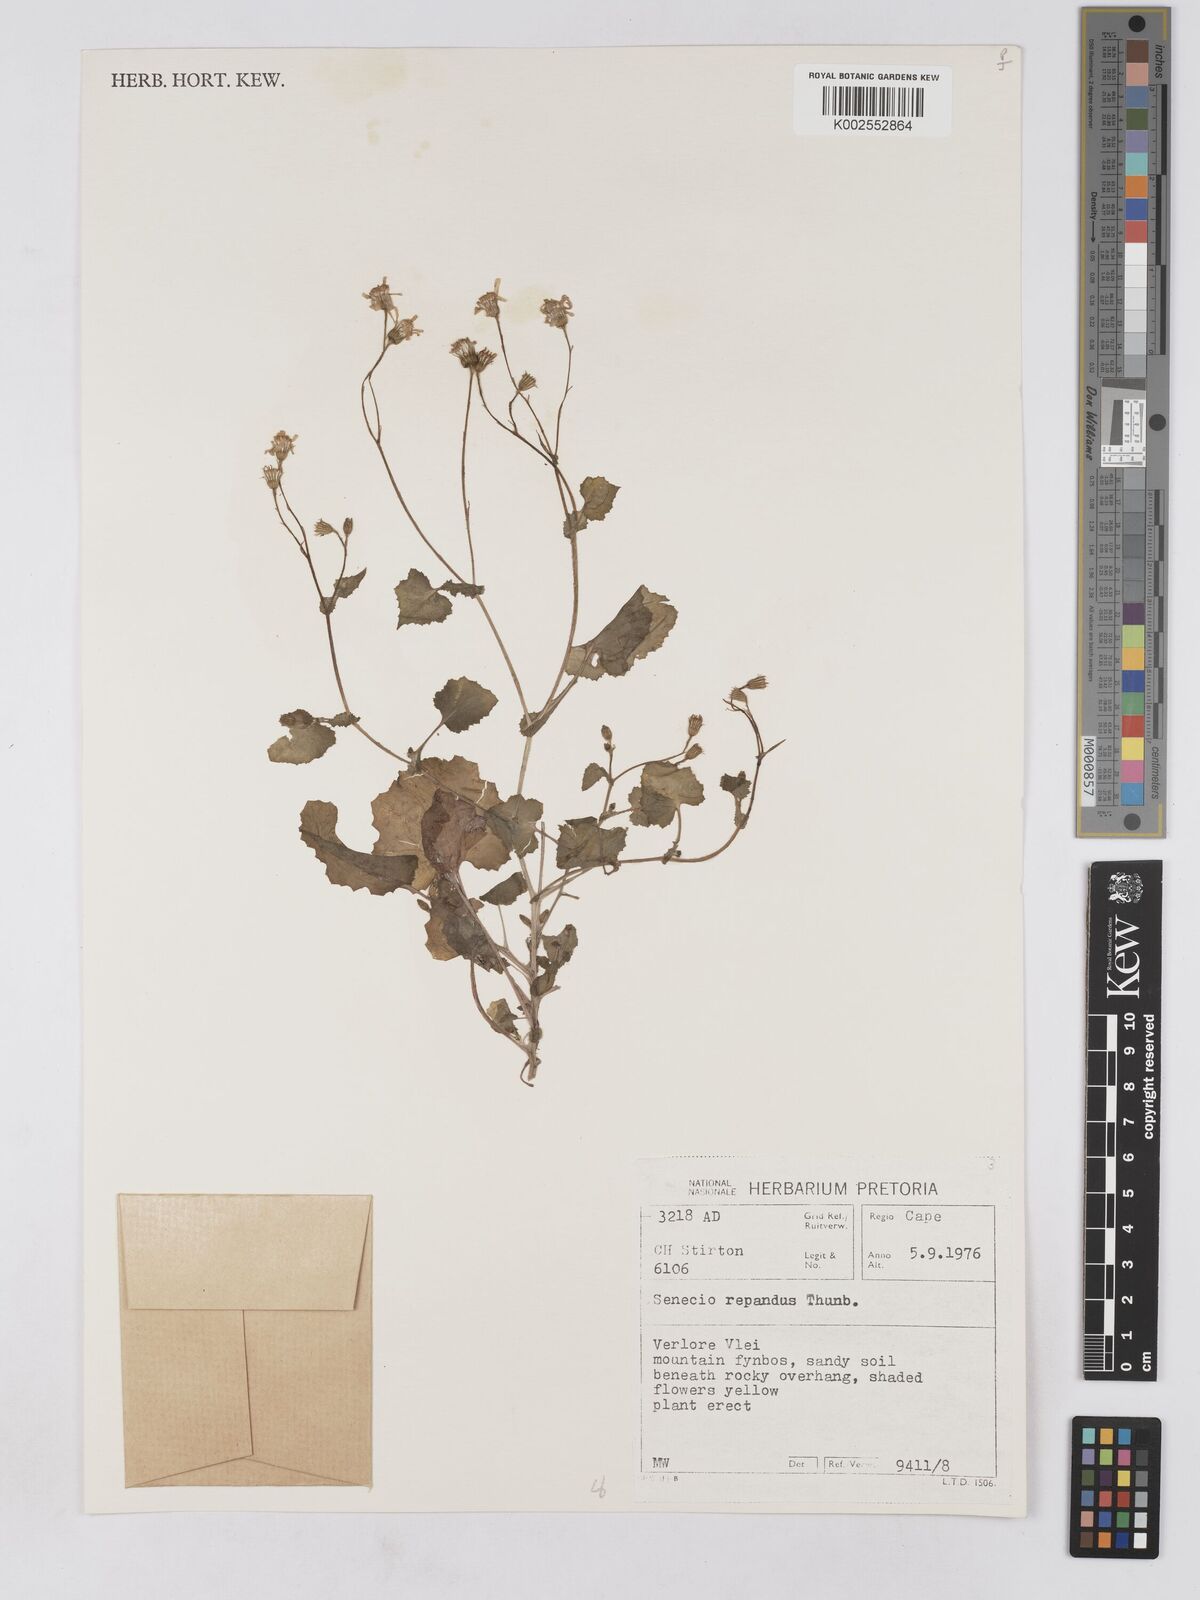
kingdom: Plantae
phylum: Tracheophyta
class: Magnoliopsida
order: Asterales
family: Asteraceae
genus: Senecio
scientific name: Senecio repandus
